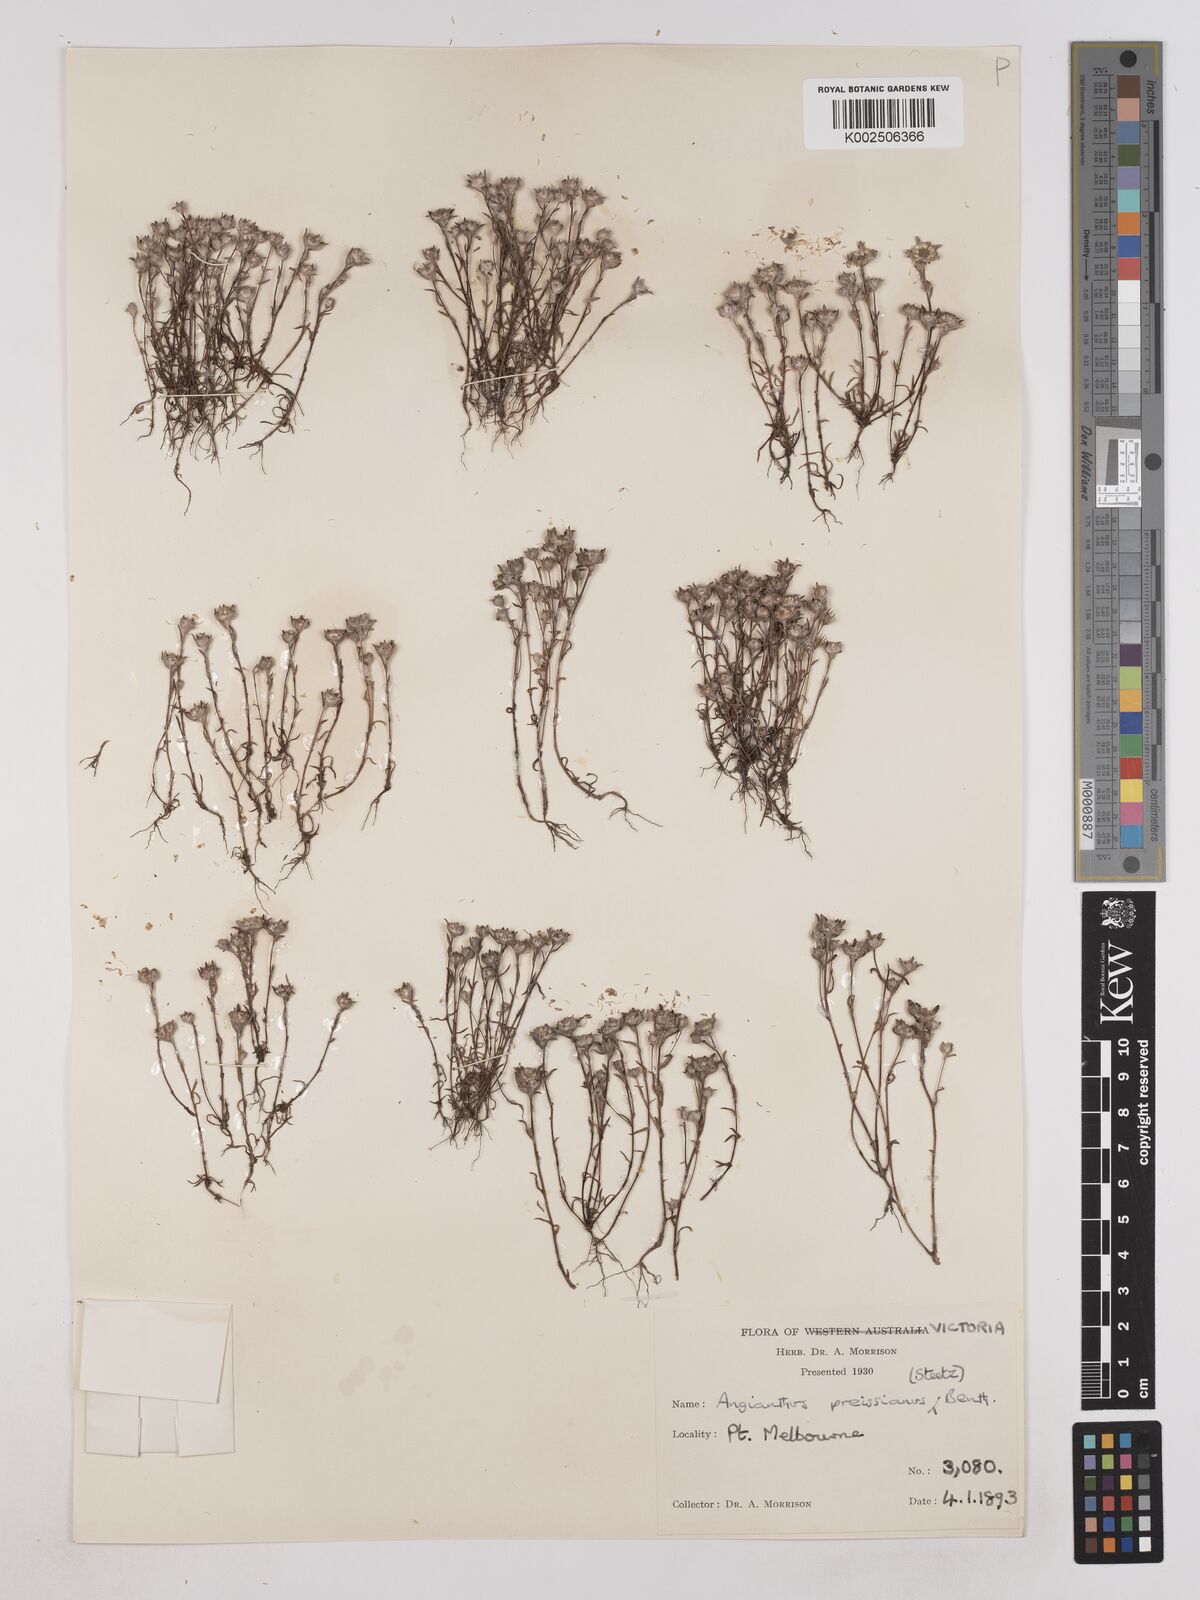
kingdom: Plantae
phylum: Tracheophyta
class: Magnoliopsida
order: Asterales
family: Asteraceae
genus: Angianthus
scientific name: Angianthus preissianus
